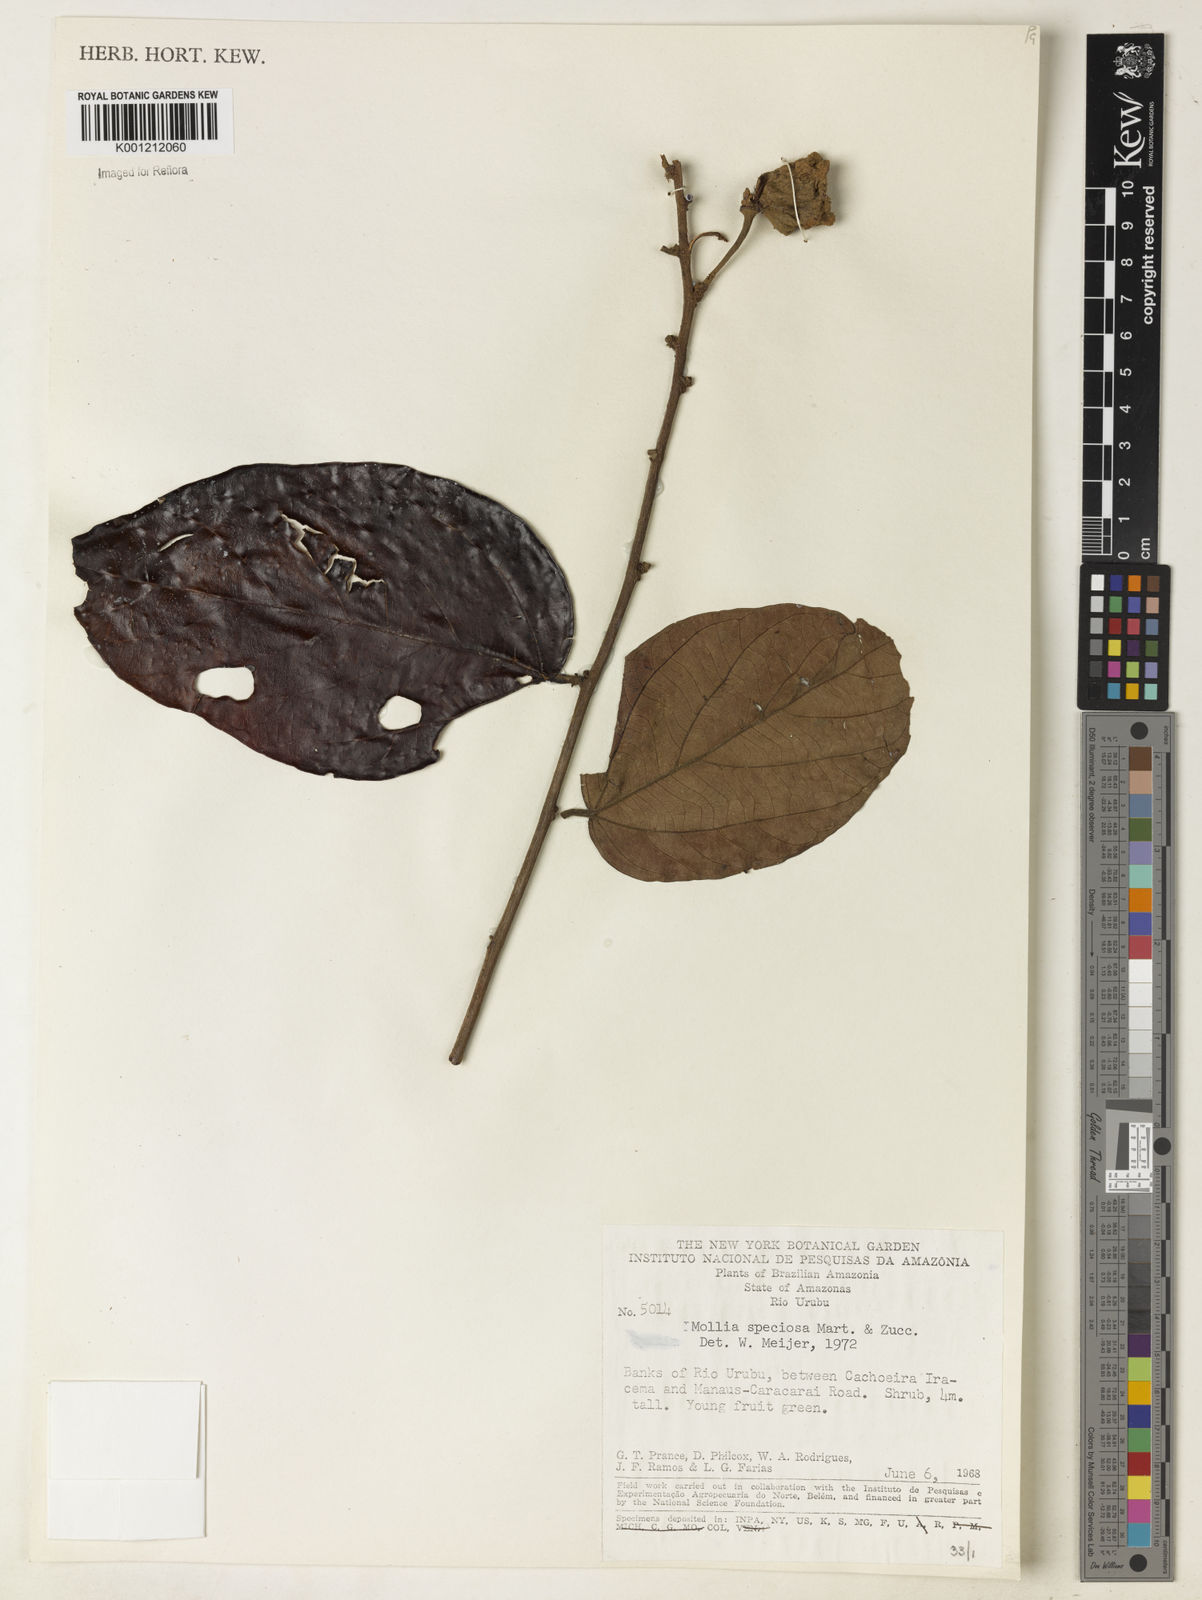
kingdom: Plantae
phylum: Tracheophyta
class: Magnoliopsida
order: Malvales
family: Malvaceae
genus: Mollia
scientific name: Mollia speciosa
